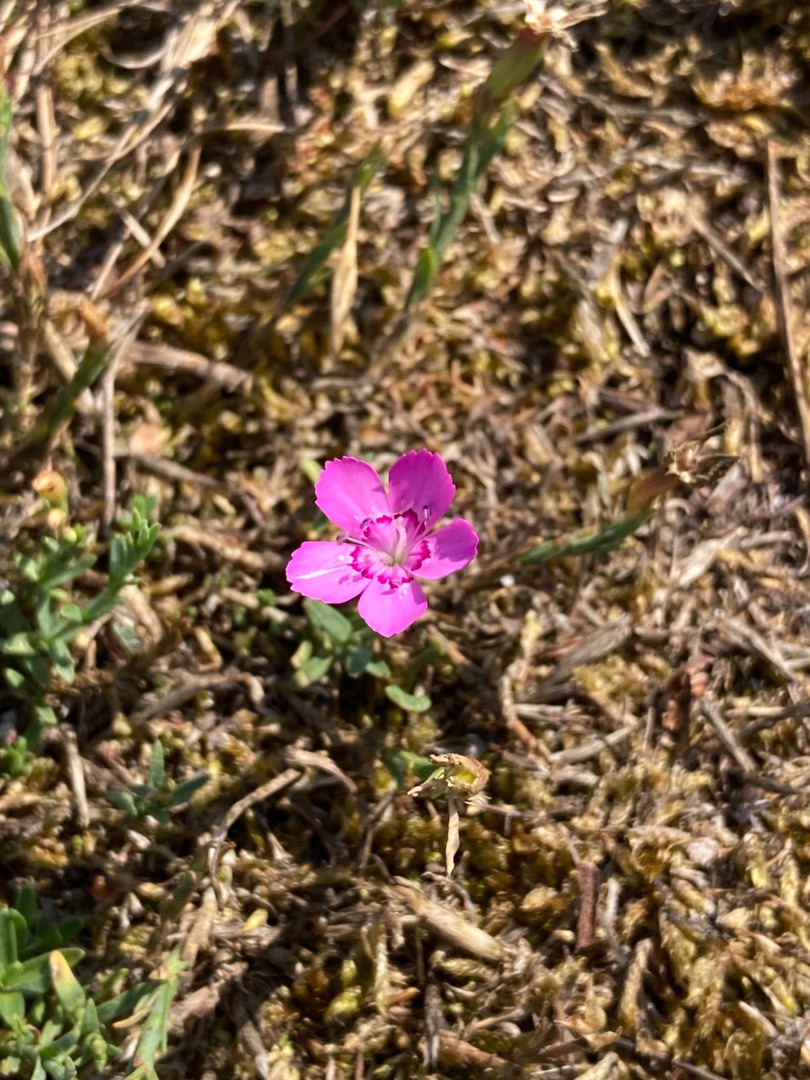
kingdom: Plantae
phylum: Tracheophyta
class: Magnoliopsida
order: Caryophyllales
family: Caryophyllaceae
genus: Dianthus
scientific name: Dianthus deltoides
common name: Bakke-nellike
